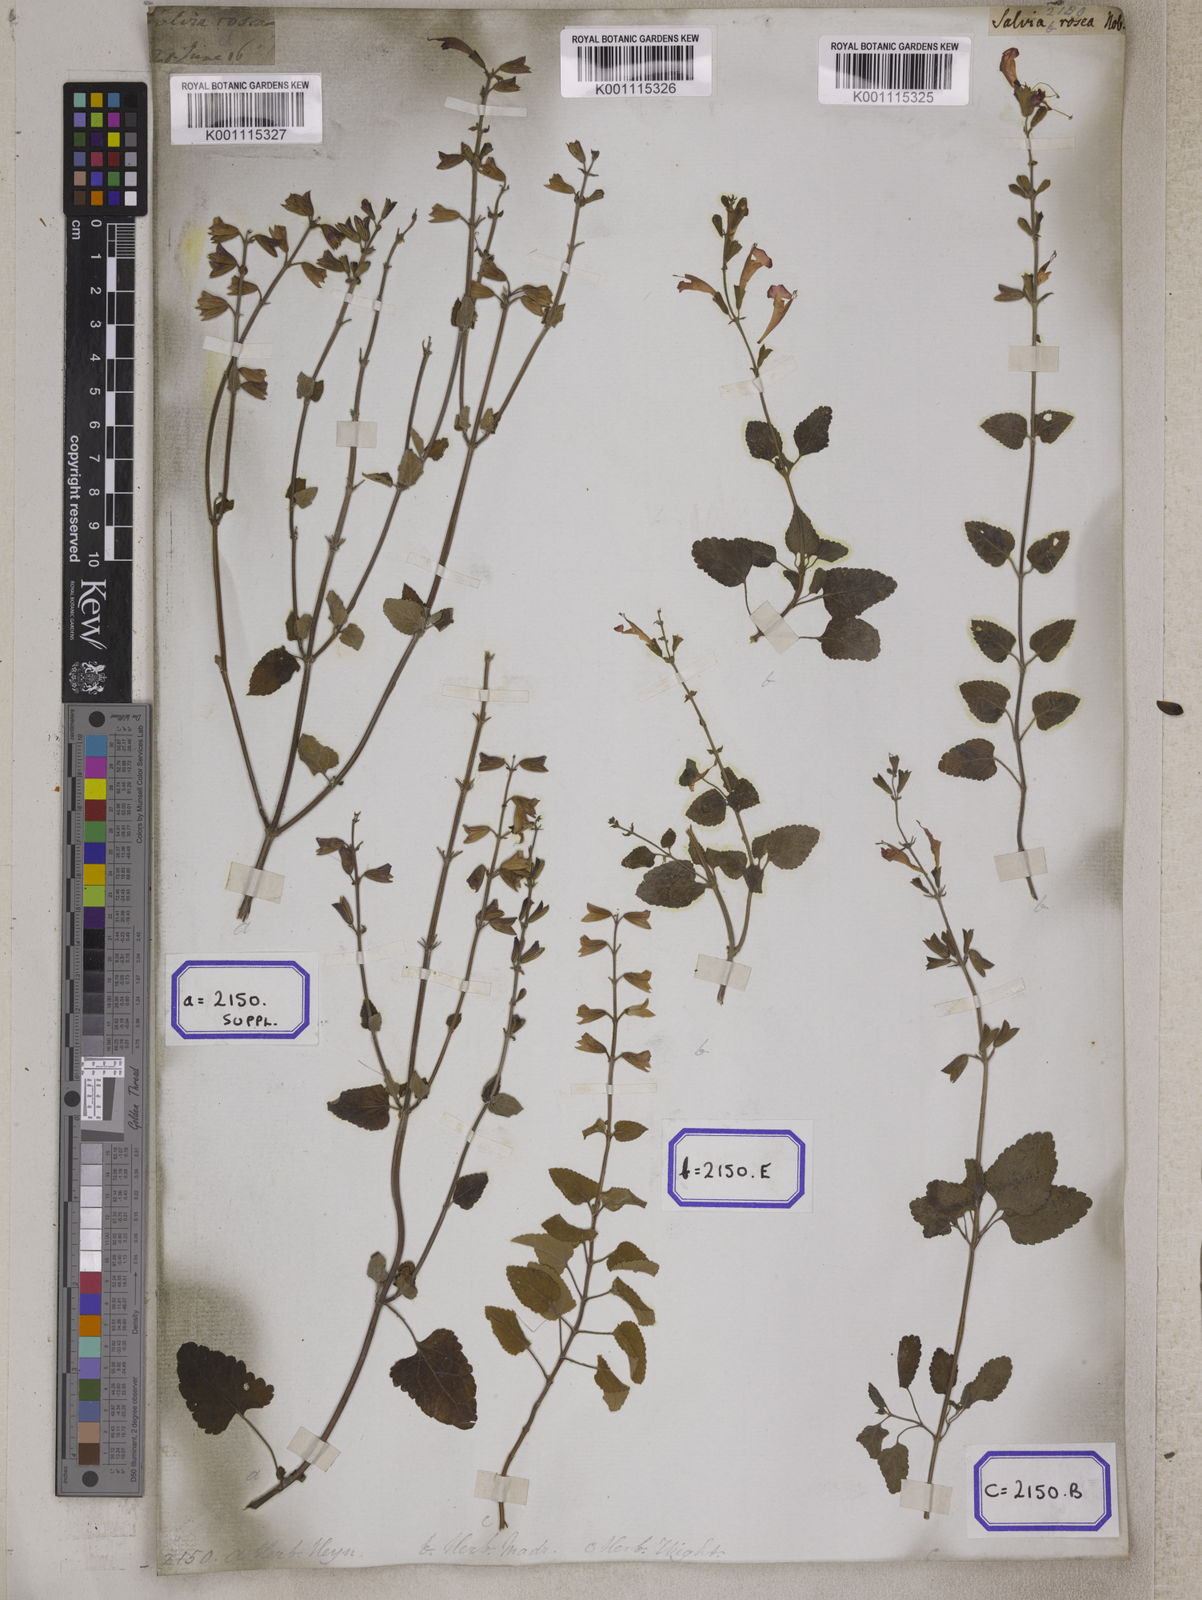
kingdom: Plantae
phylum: Tracheophyta
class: Magnoliopsida
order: Lamiales
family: Lamiaceae
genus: Salvia
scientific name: Salvia coccinea
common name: Blood sage
